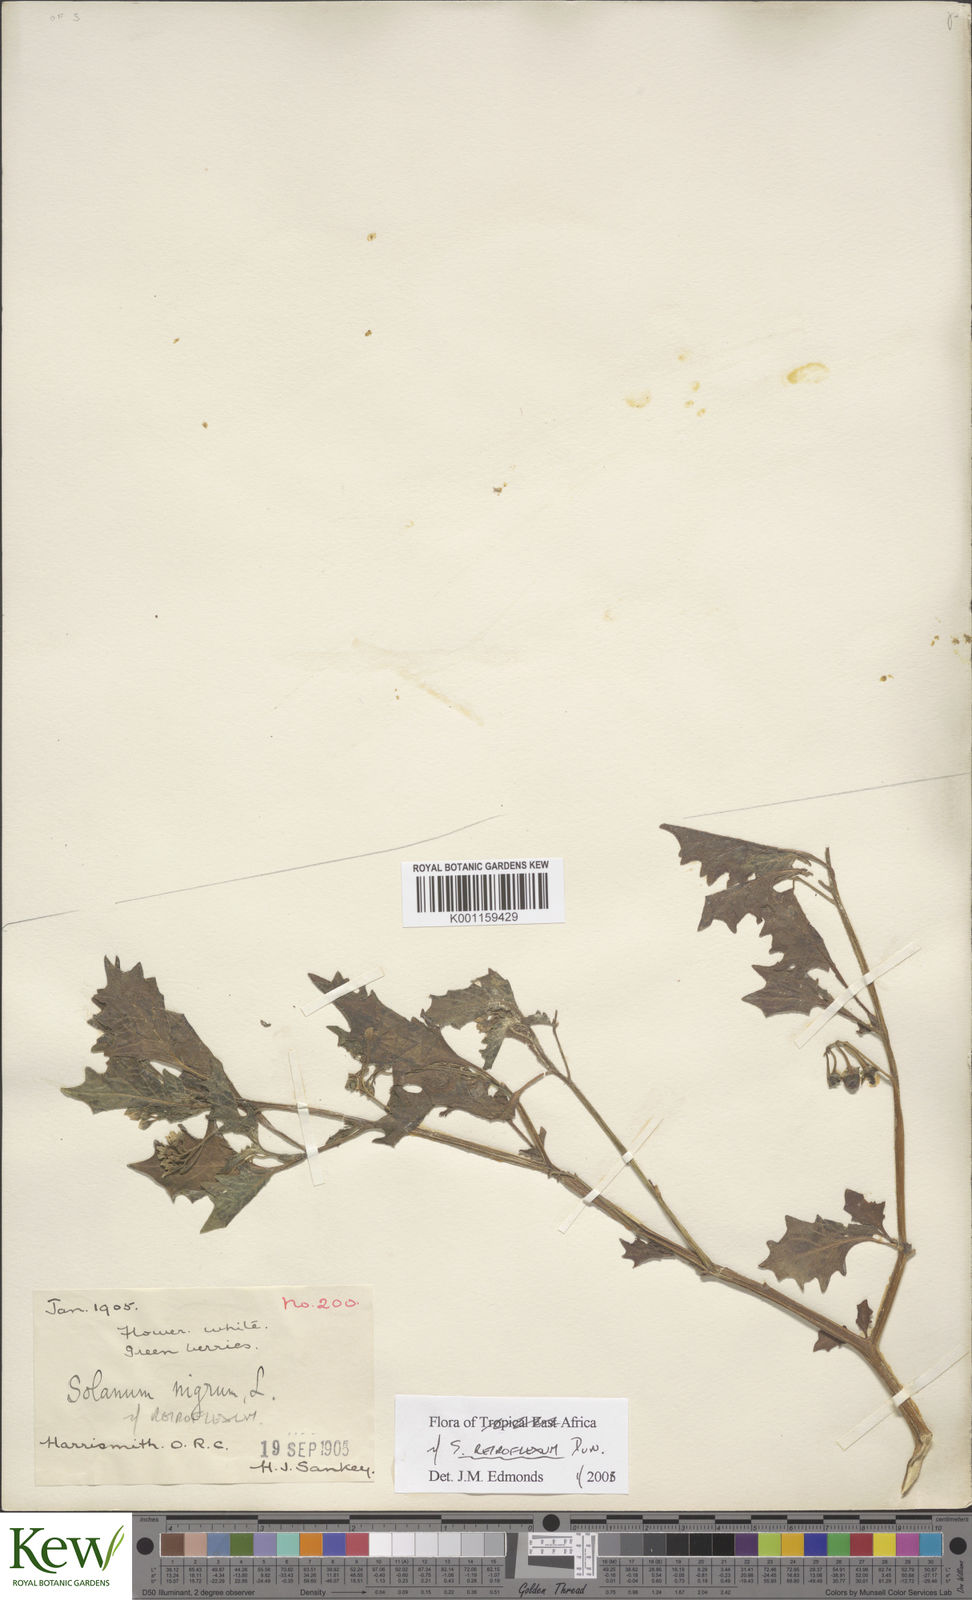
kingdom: Plantae
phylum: Tracheophyta
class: Magnoliopsida
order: Solanales
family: Solanaceae
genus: Solanum
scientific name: Solanum retroflexum
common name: Wonderberry
